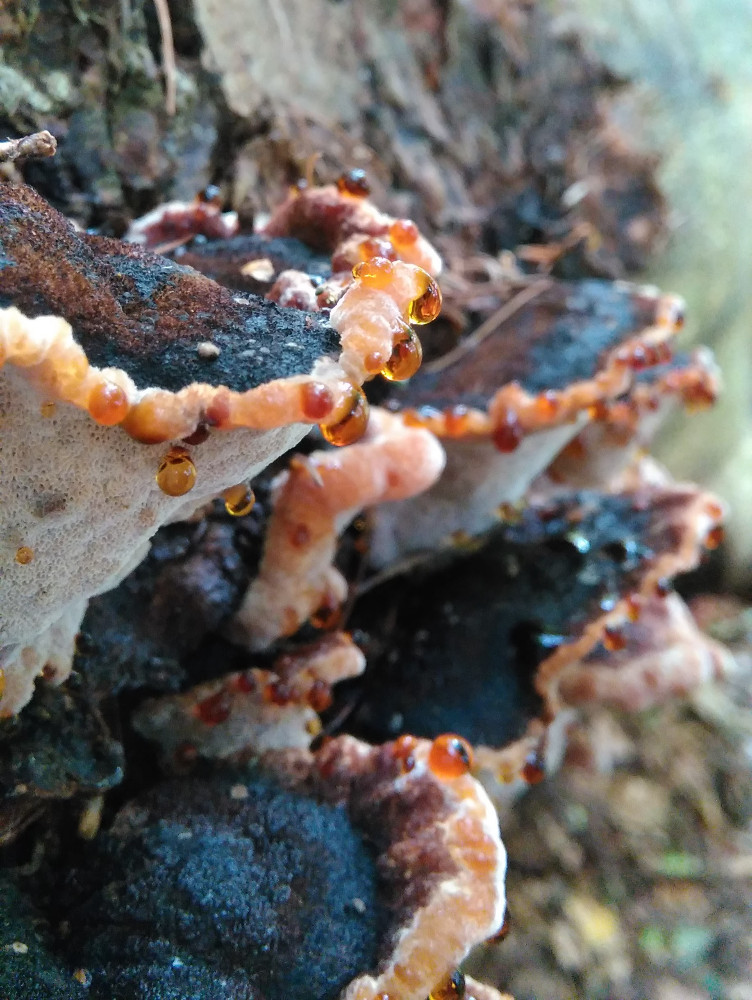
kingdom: Fungi
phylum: Basidiomycota
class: Agaricomycetes
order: Polyporales
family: Ischnodermataceae
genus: Ischnoderma
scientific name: Ischnoderma benzoinum
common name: gran-tjæreporesvamp
